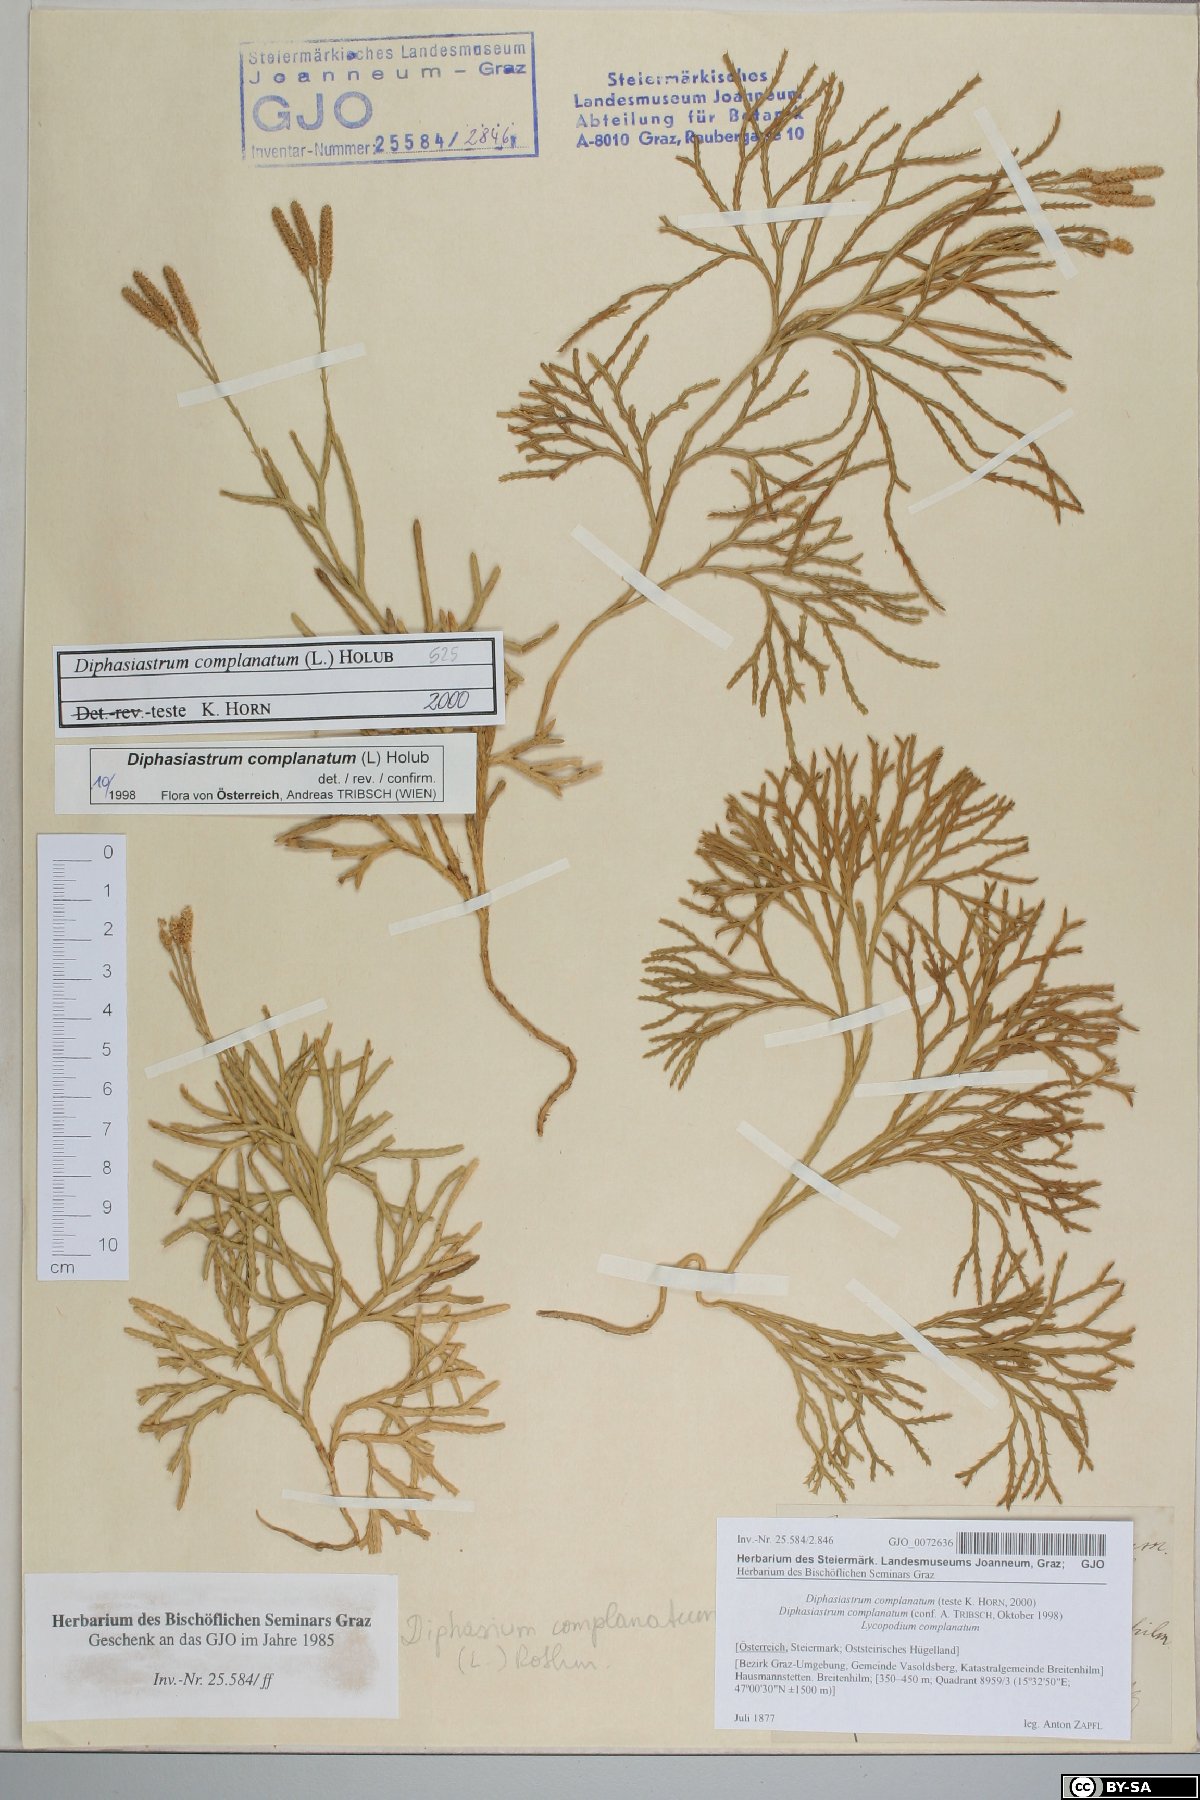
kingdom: Plantae
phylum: Tracheophyta
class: Lycopodiopsida
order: Lycopodiales
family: Lycopodiaceae
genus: Diphasiastrum
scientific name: Diphasiastrum complanatum
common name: Northern running-pine
